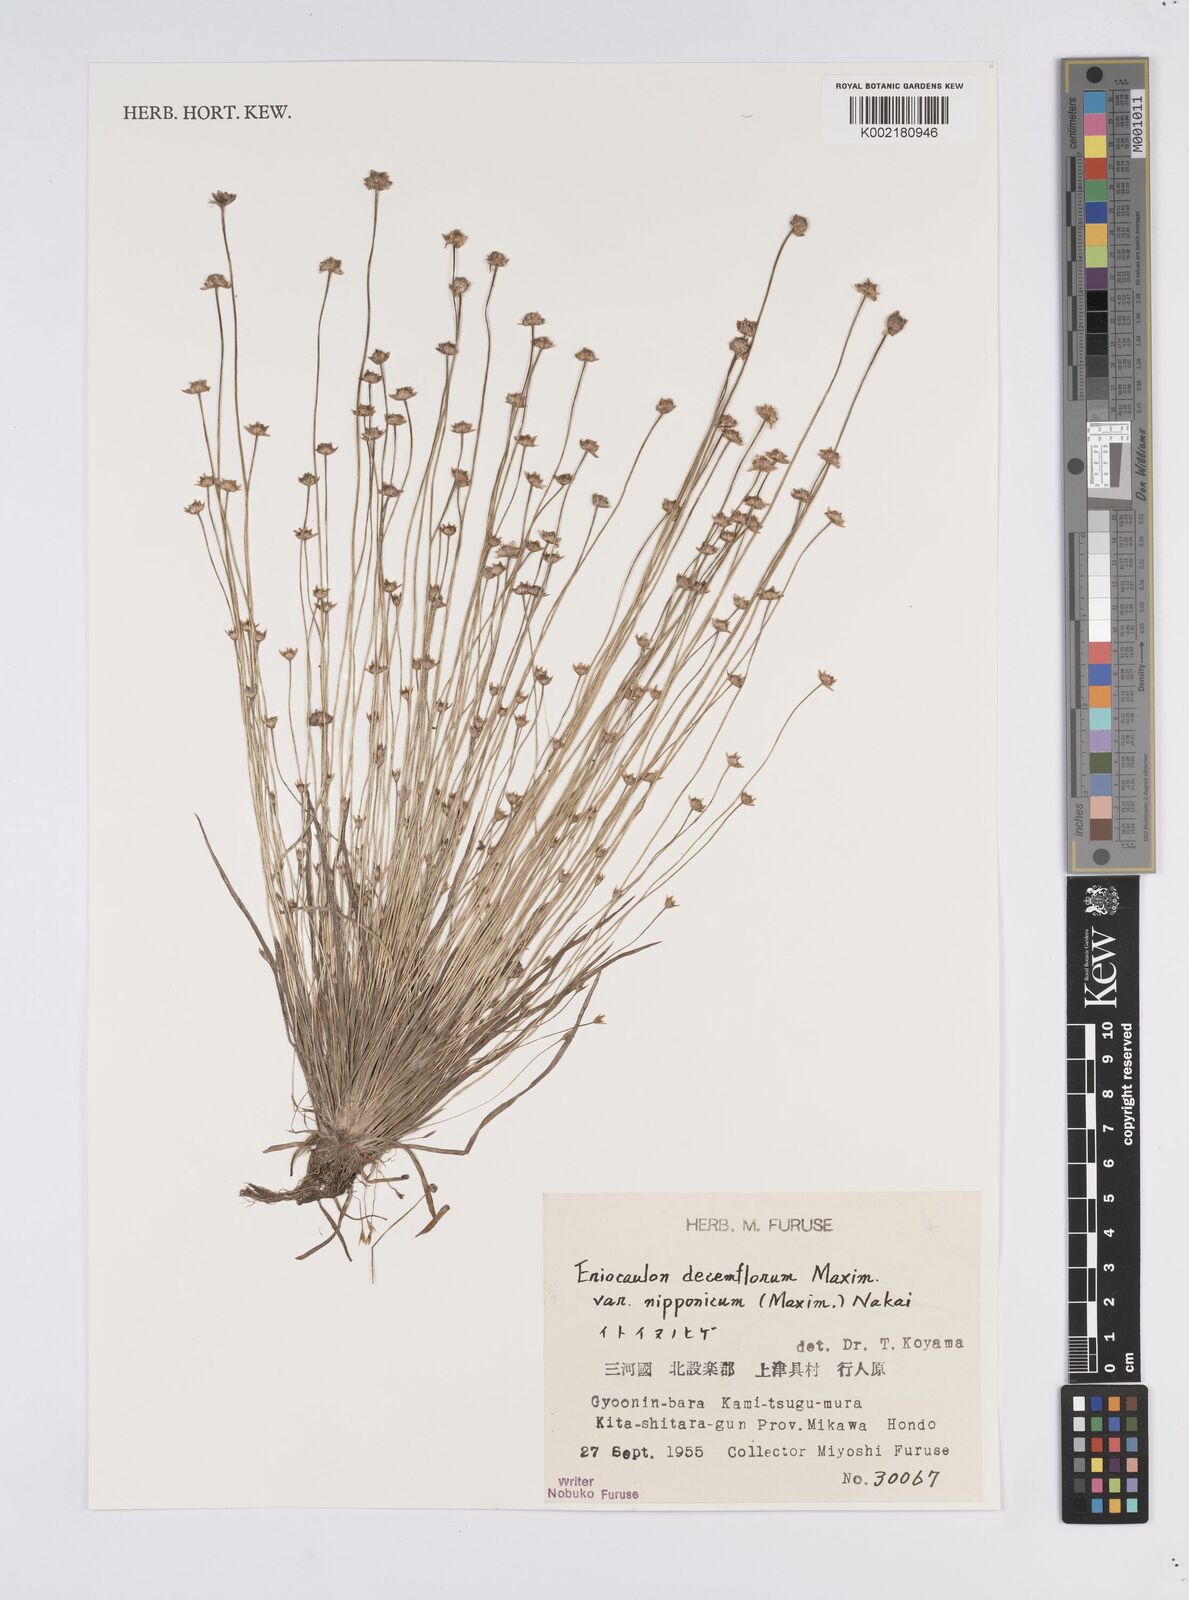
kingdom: Plantae
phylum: Tracheophyta
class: Liliopsida
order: Poales
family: Eriocaulaceae
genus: Eriocaulon
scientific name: Eriocaulon decemflorum
